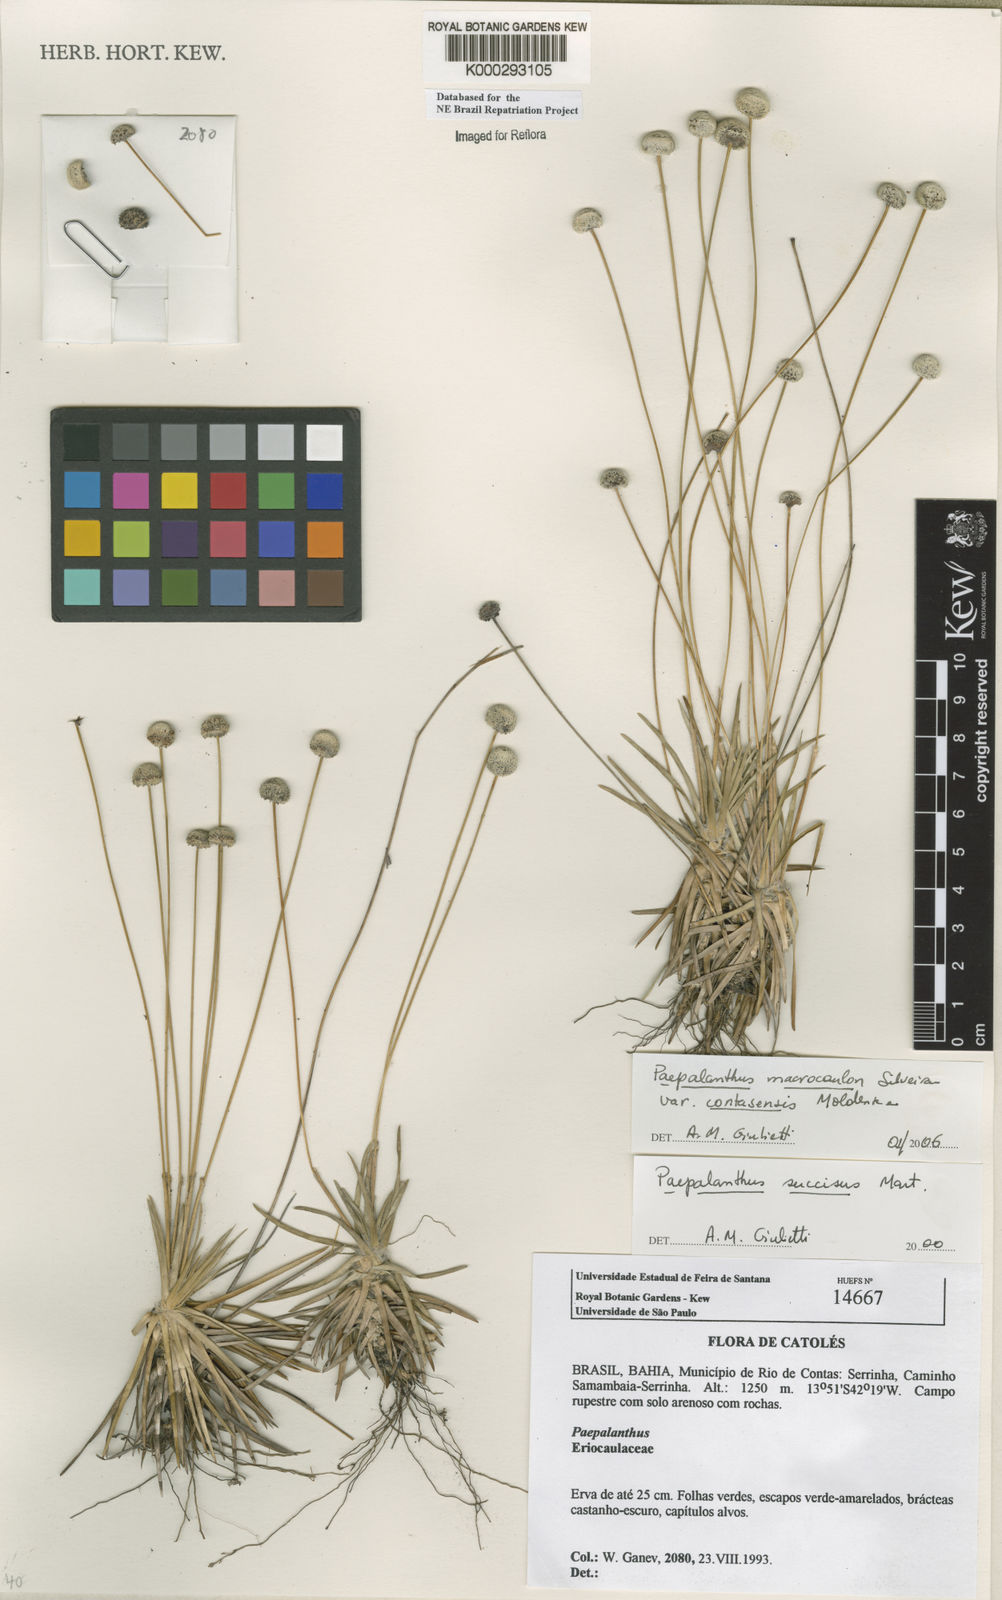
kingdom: Plantae
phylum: Tracheophyta
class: Liliopsida
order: Poales
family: Eriocaulaceae
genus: Paepalanthus
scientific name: Paepalanthus
